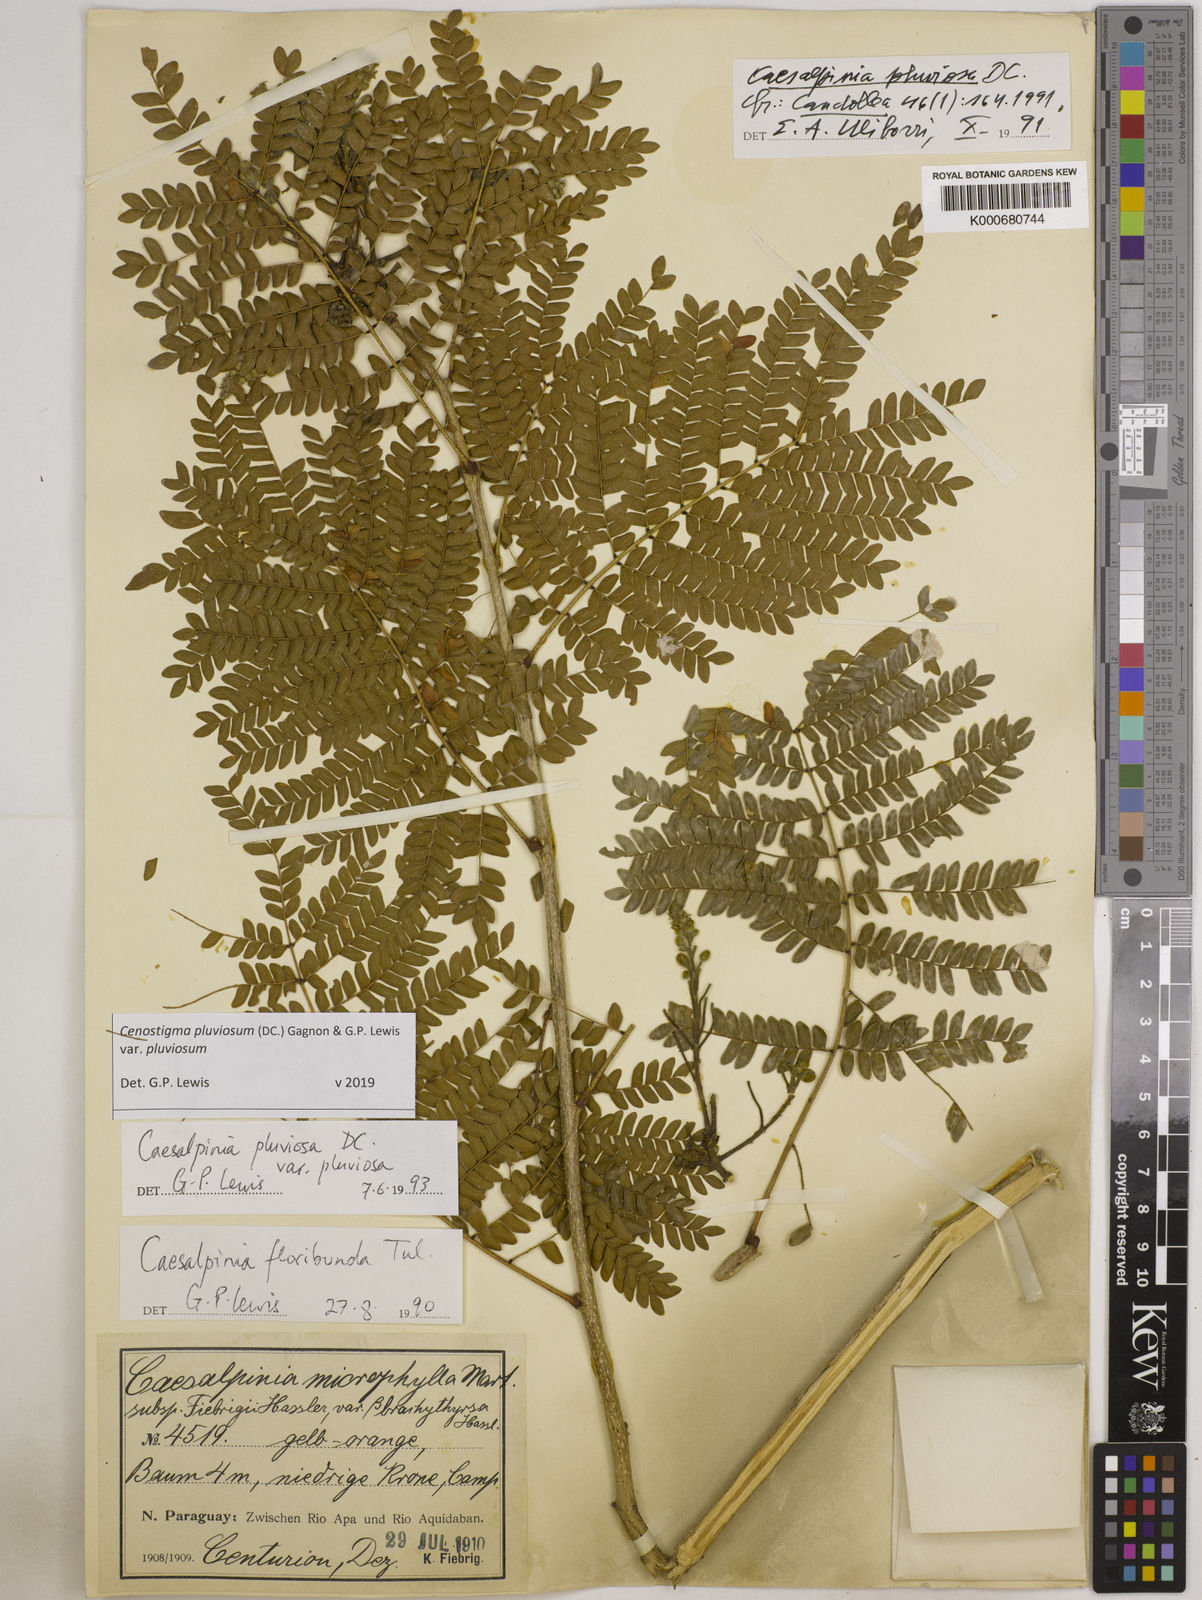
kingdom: Plantae
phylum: Tracheophyta
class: Magnoliopsida
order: Fabales
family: Fabaceae
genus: Cenostigma
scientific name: Cenostigma pluviosum
